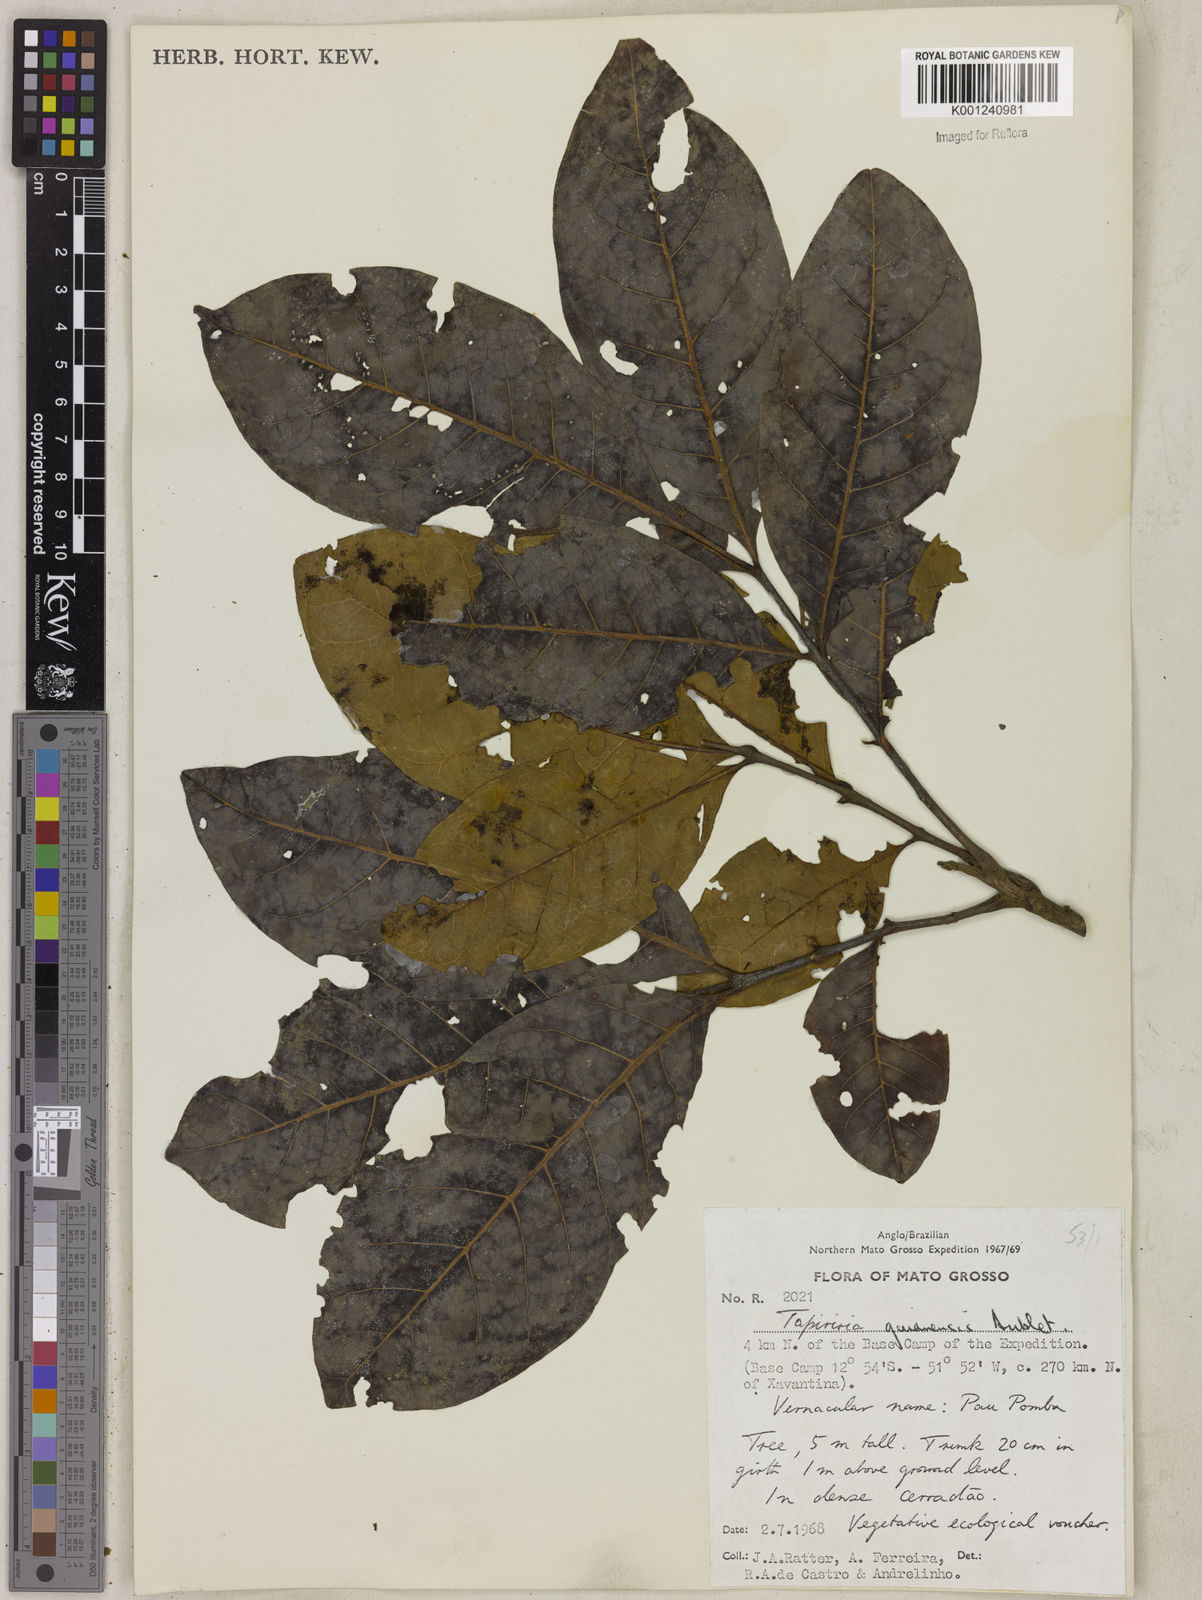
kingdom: Plantae
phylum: Tracheophyta
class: Magnoliopsida
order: Sapindales
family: Anacardiaceae
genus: Tapirira
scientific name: Tapirira guianensis
